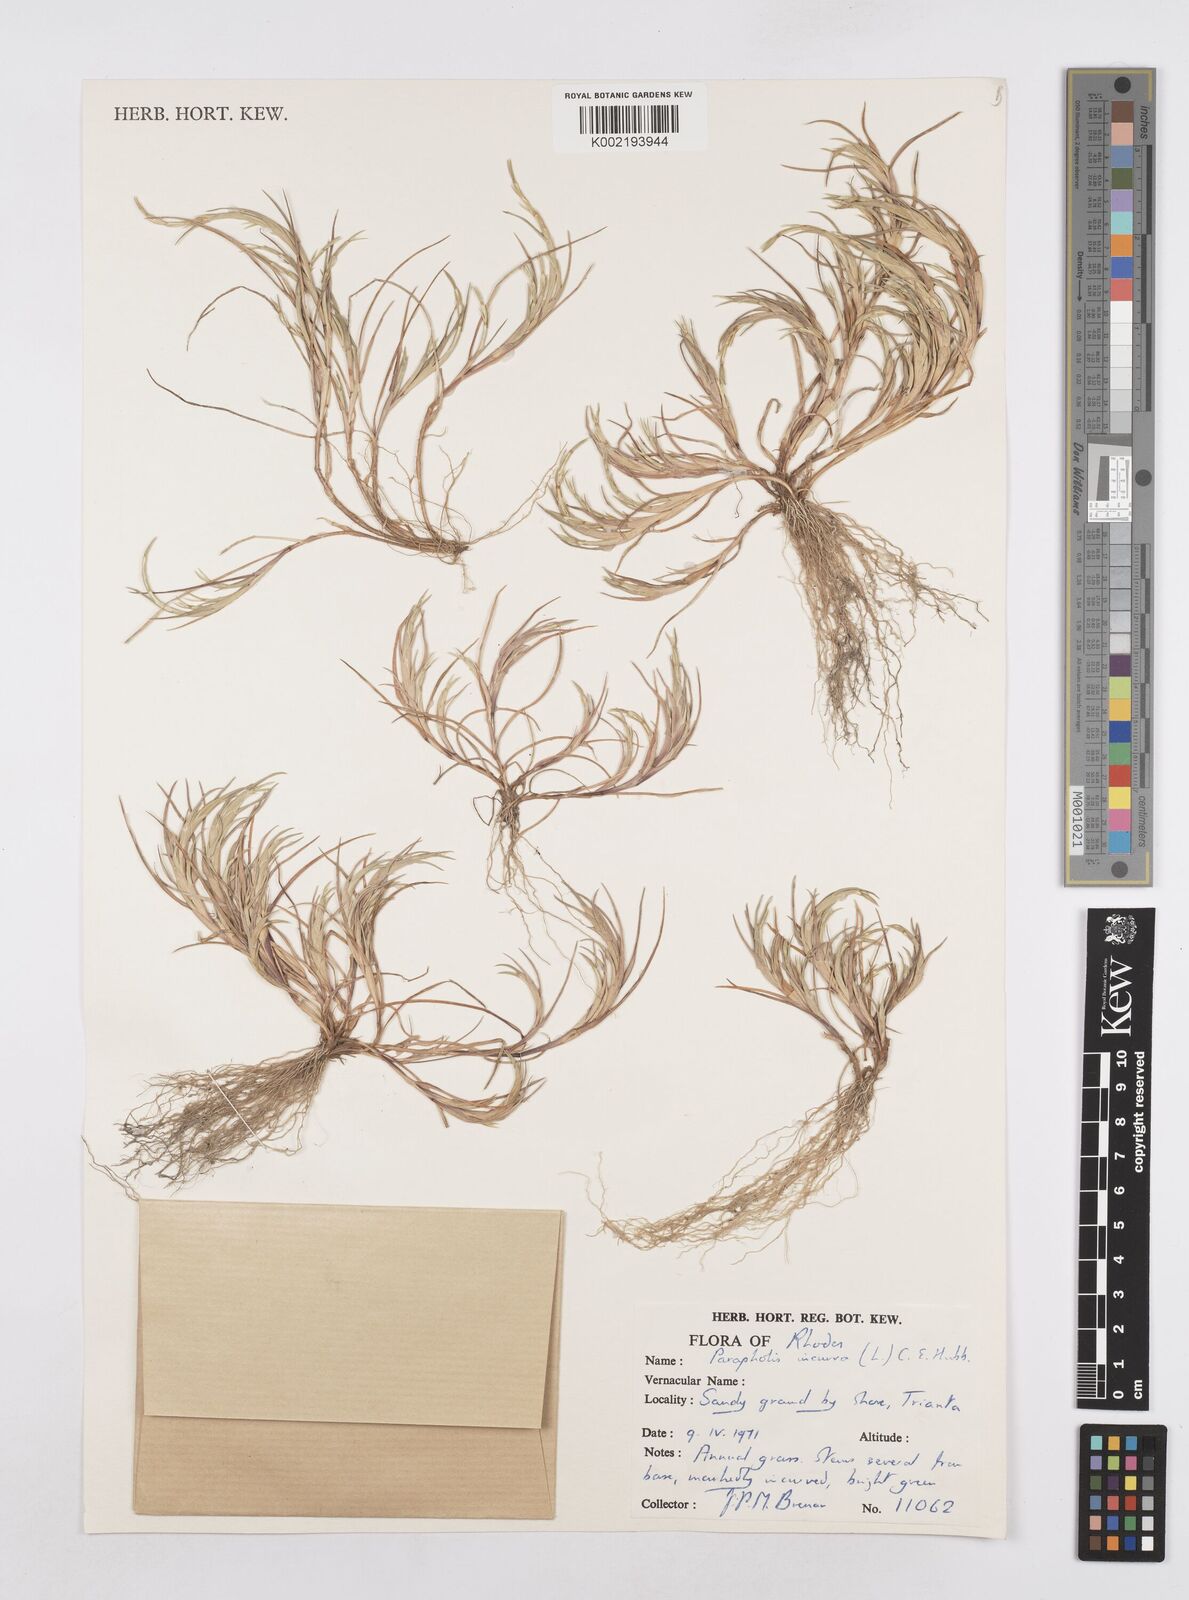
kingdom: Plantae
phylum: Tracheophyta
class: Liliopsida
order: Poales
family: Poaceae
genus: Parapholis
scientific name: Parapholis incurva
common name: Curved sicklegrass
